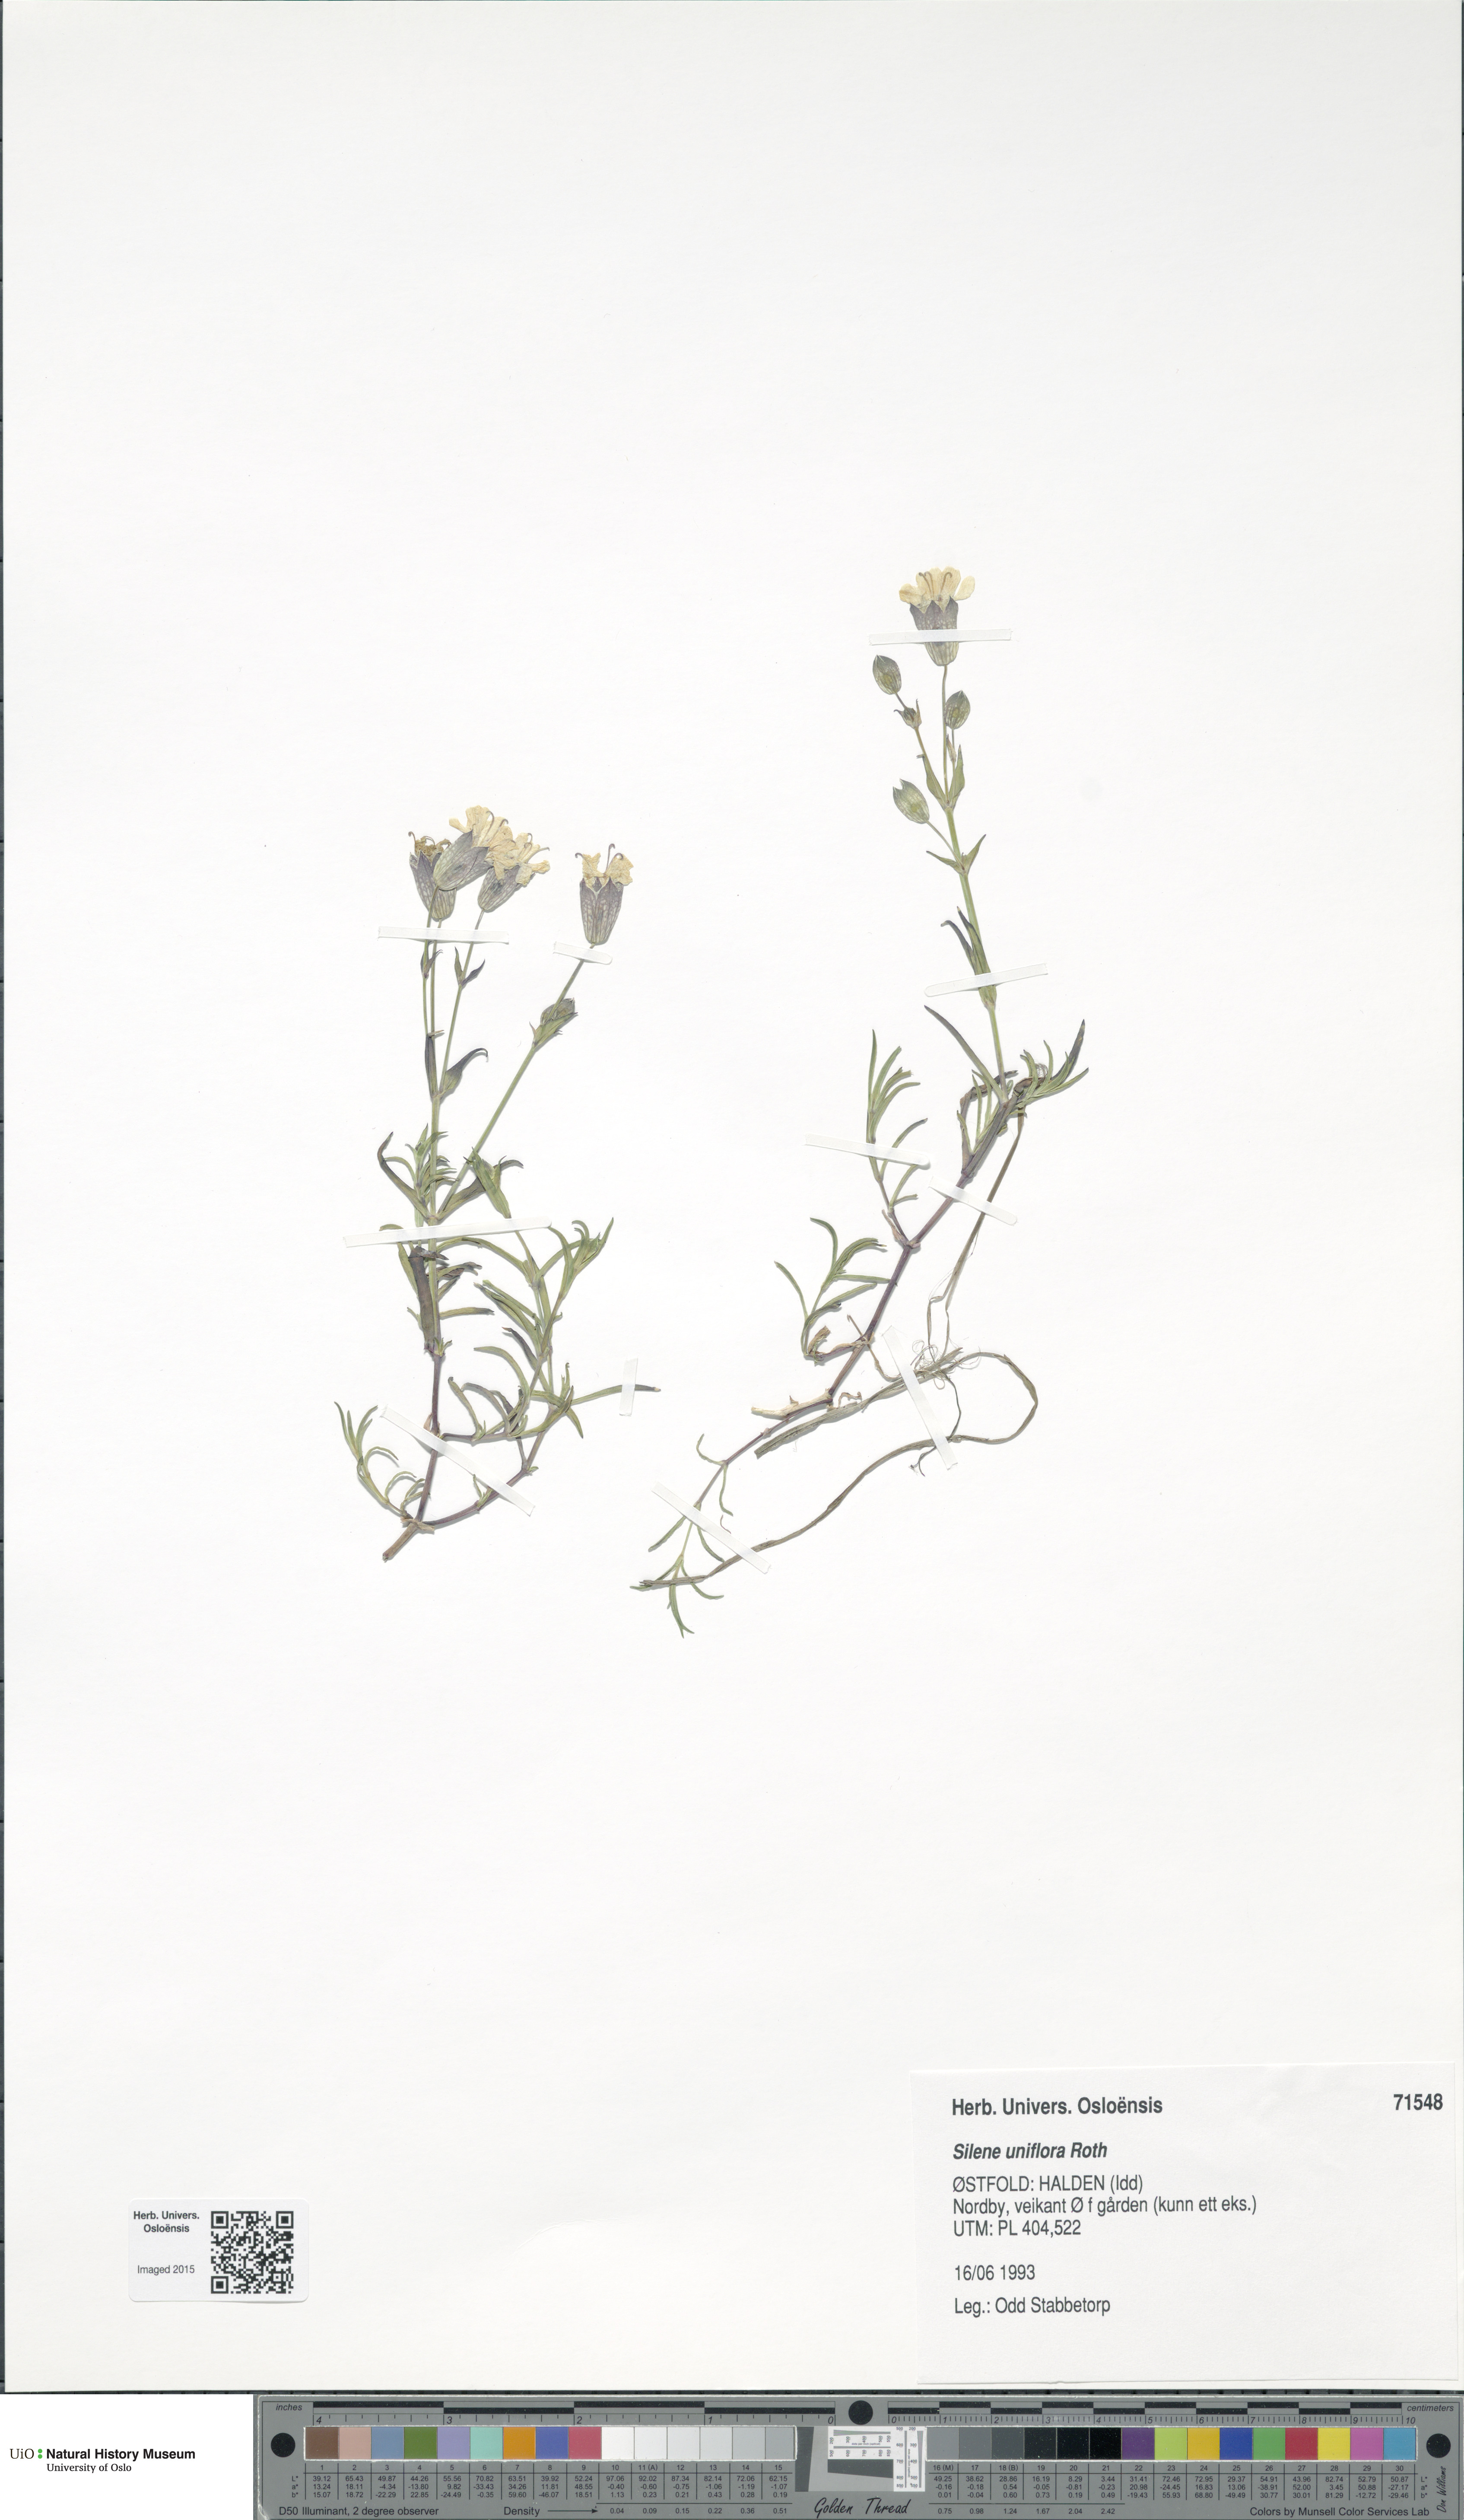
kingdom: Plantae
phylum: Tracheophyta
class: Magnoliopsida
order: Caryophyllales
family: Caryophyllaceae
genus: Silene
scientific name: Silene uniflora
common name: Sea campion
